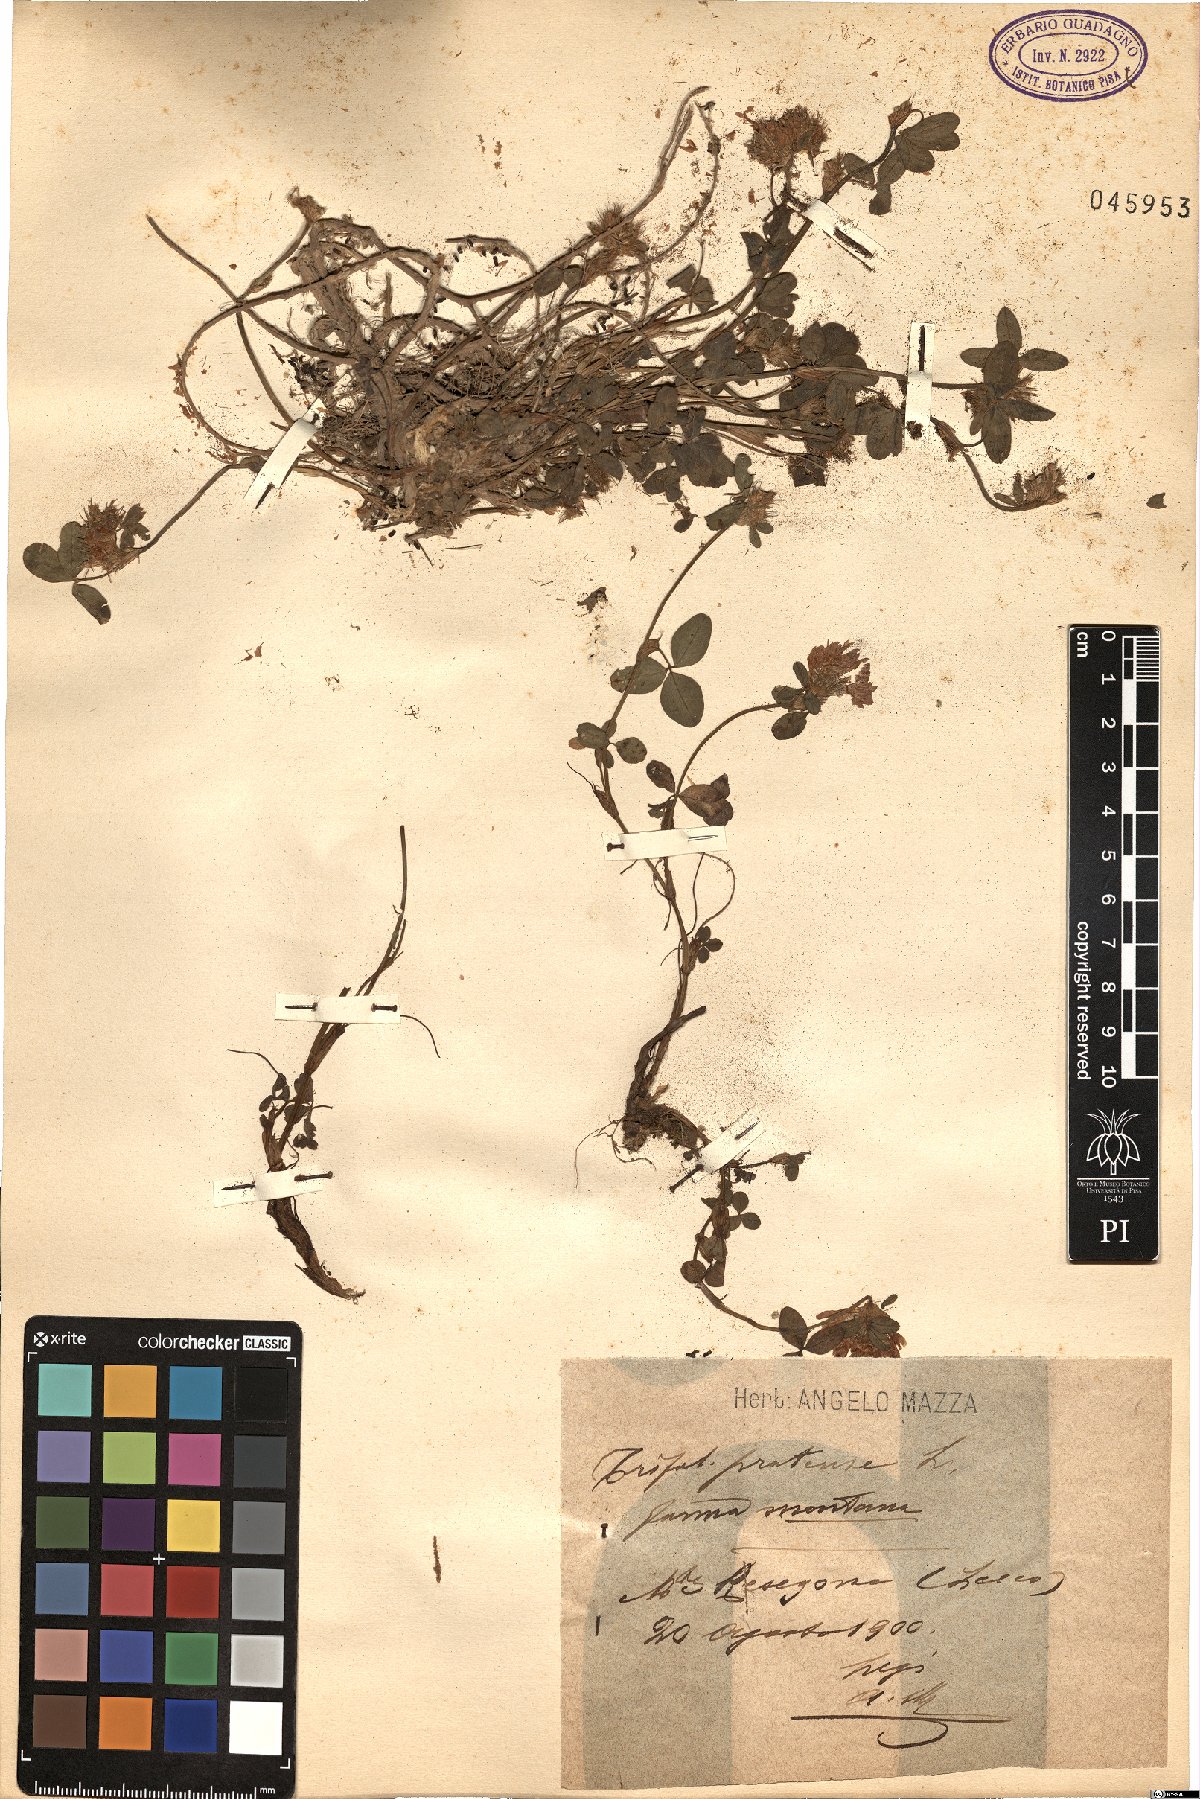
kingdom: Plantae
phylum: Tracheophyta
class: Magnoliopsida
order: Fabales
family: Fabaceae
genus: Trifolium
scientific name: Trifolium pratense
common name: Red clover
